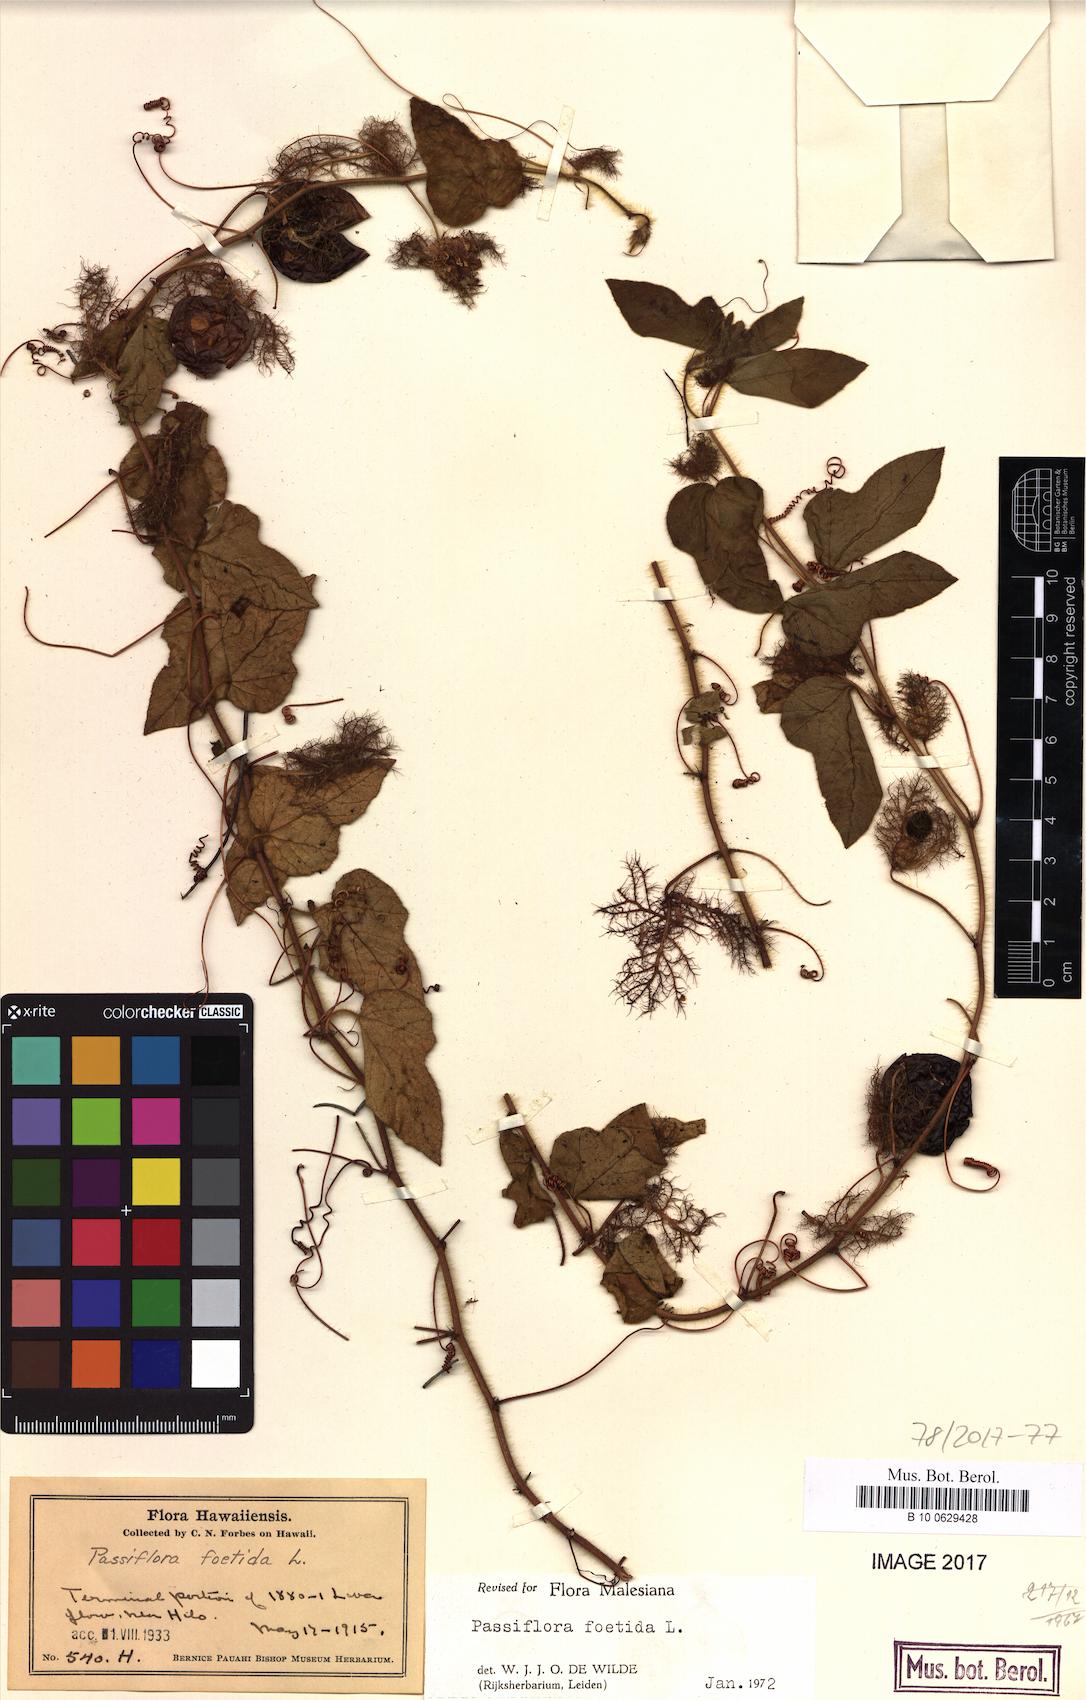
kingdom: Plantae
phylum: Tracheophyta
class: Magnoliopsida
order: Malpighiales
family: Passifloraceae
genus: Passiflora
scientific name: Passiflora foetida
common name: Fetid passionflower
